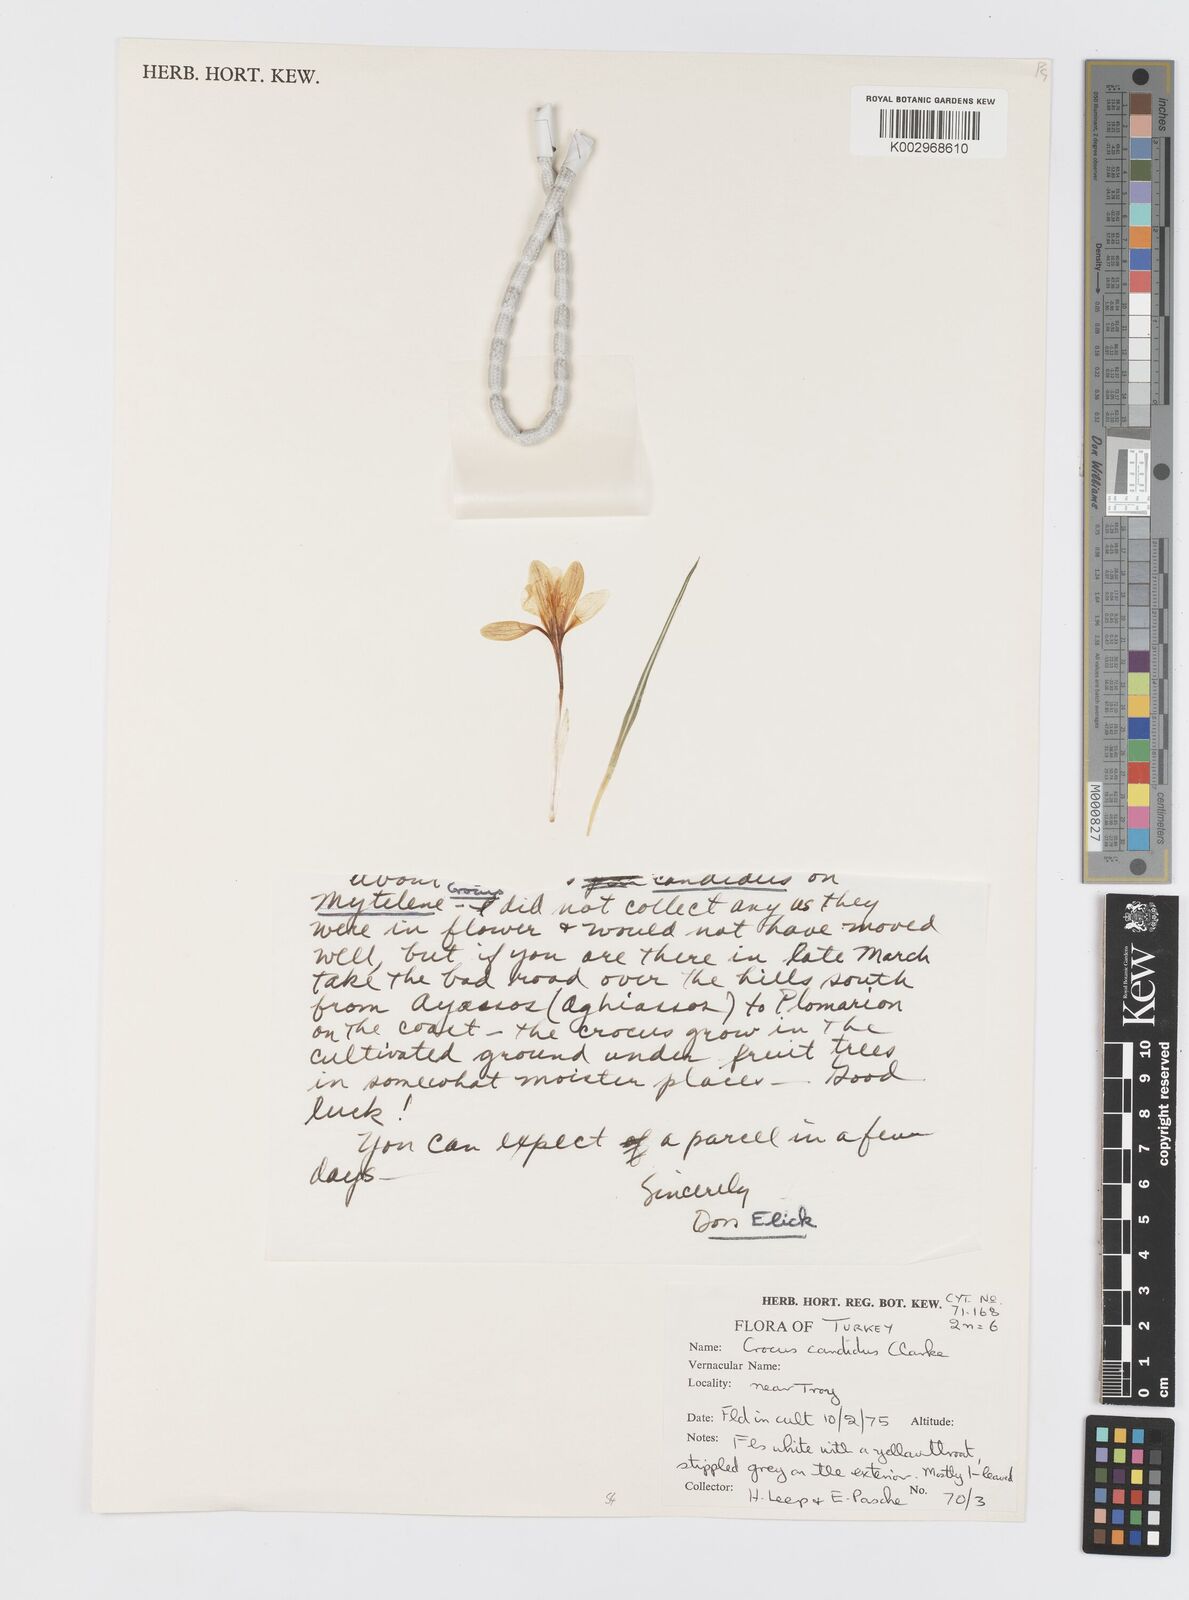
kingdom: Plantae
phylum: Tracheophyta
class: Liliopsida
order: Asparagales
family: Iridaceae
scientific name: Iridaceae
